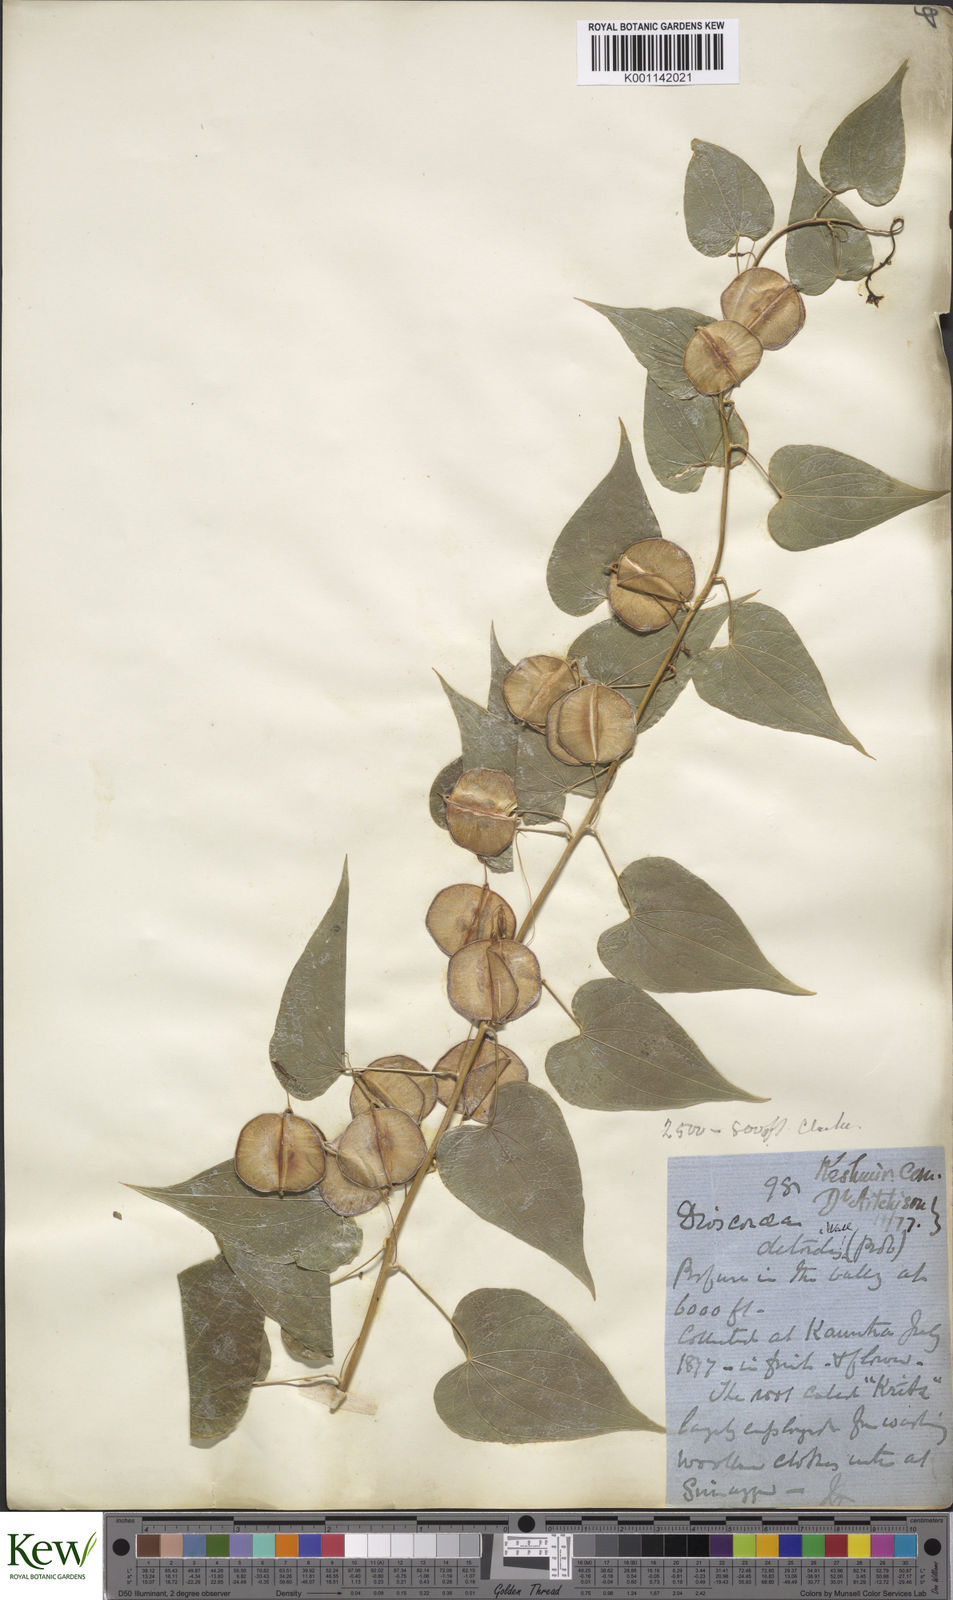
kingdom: Plantae
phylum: Tracheophyta
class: Liliopsida
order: Dioscoreales
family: Dioscoreaceae
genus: Dioscorea
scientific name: Dioscorea deltoidea
